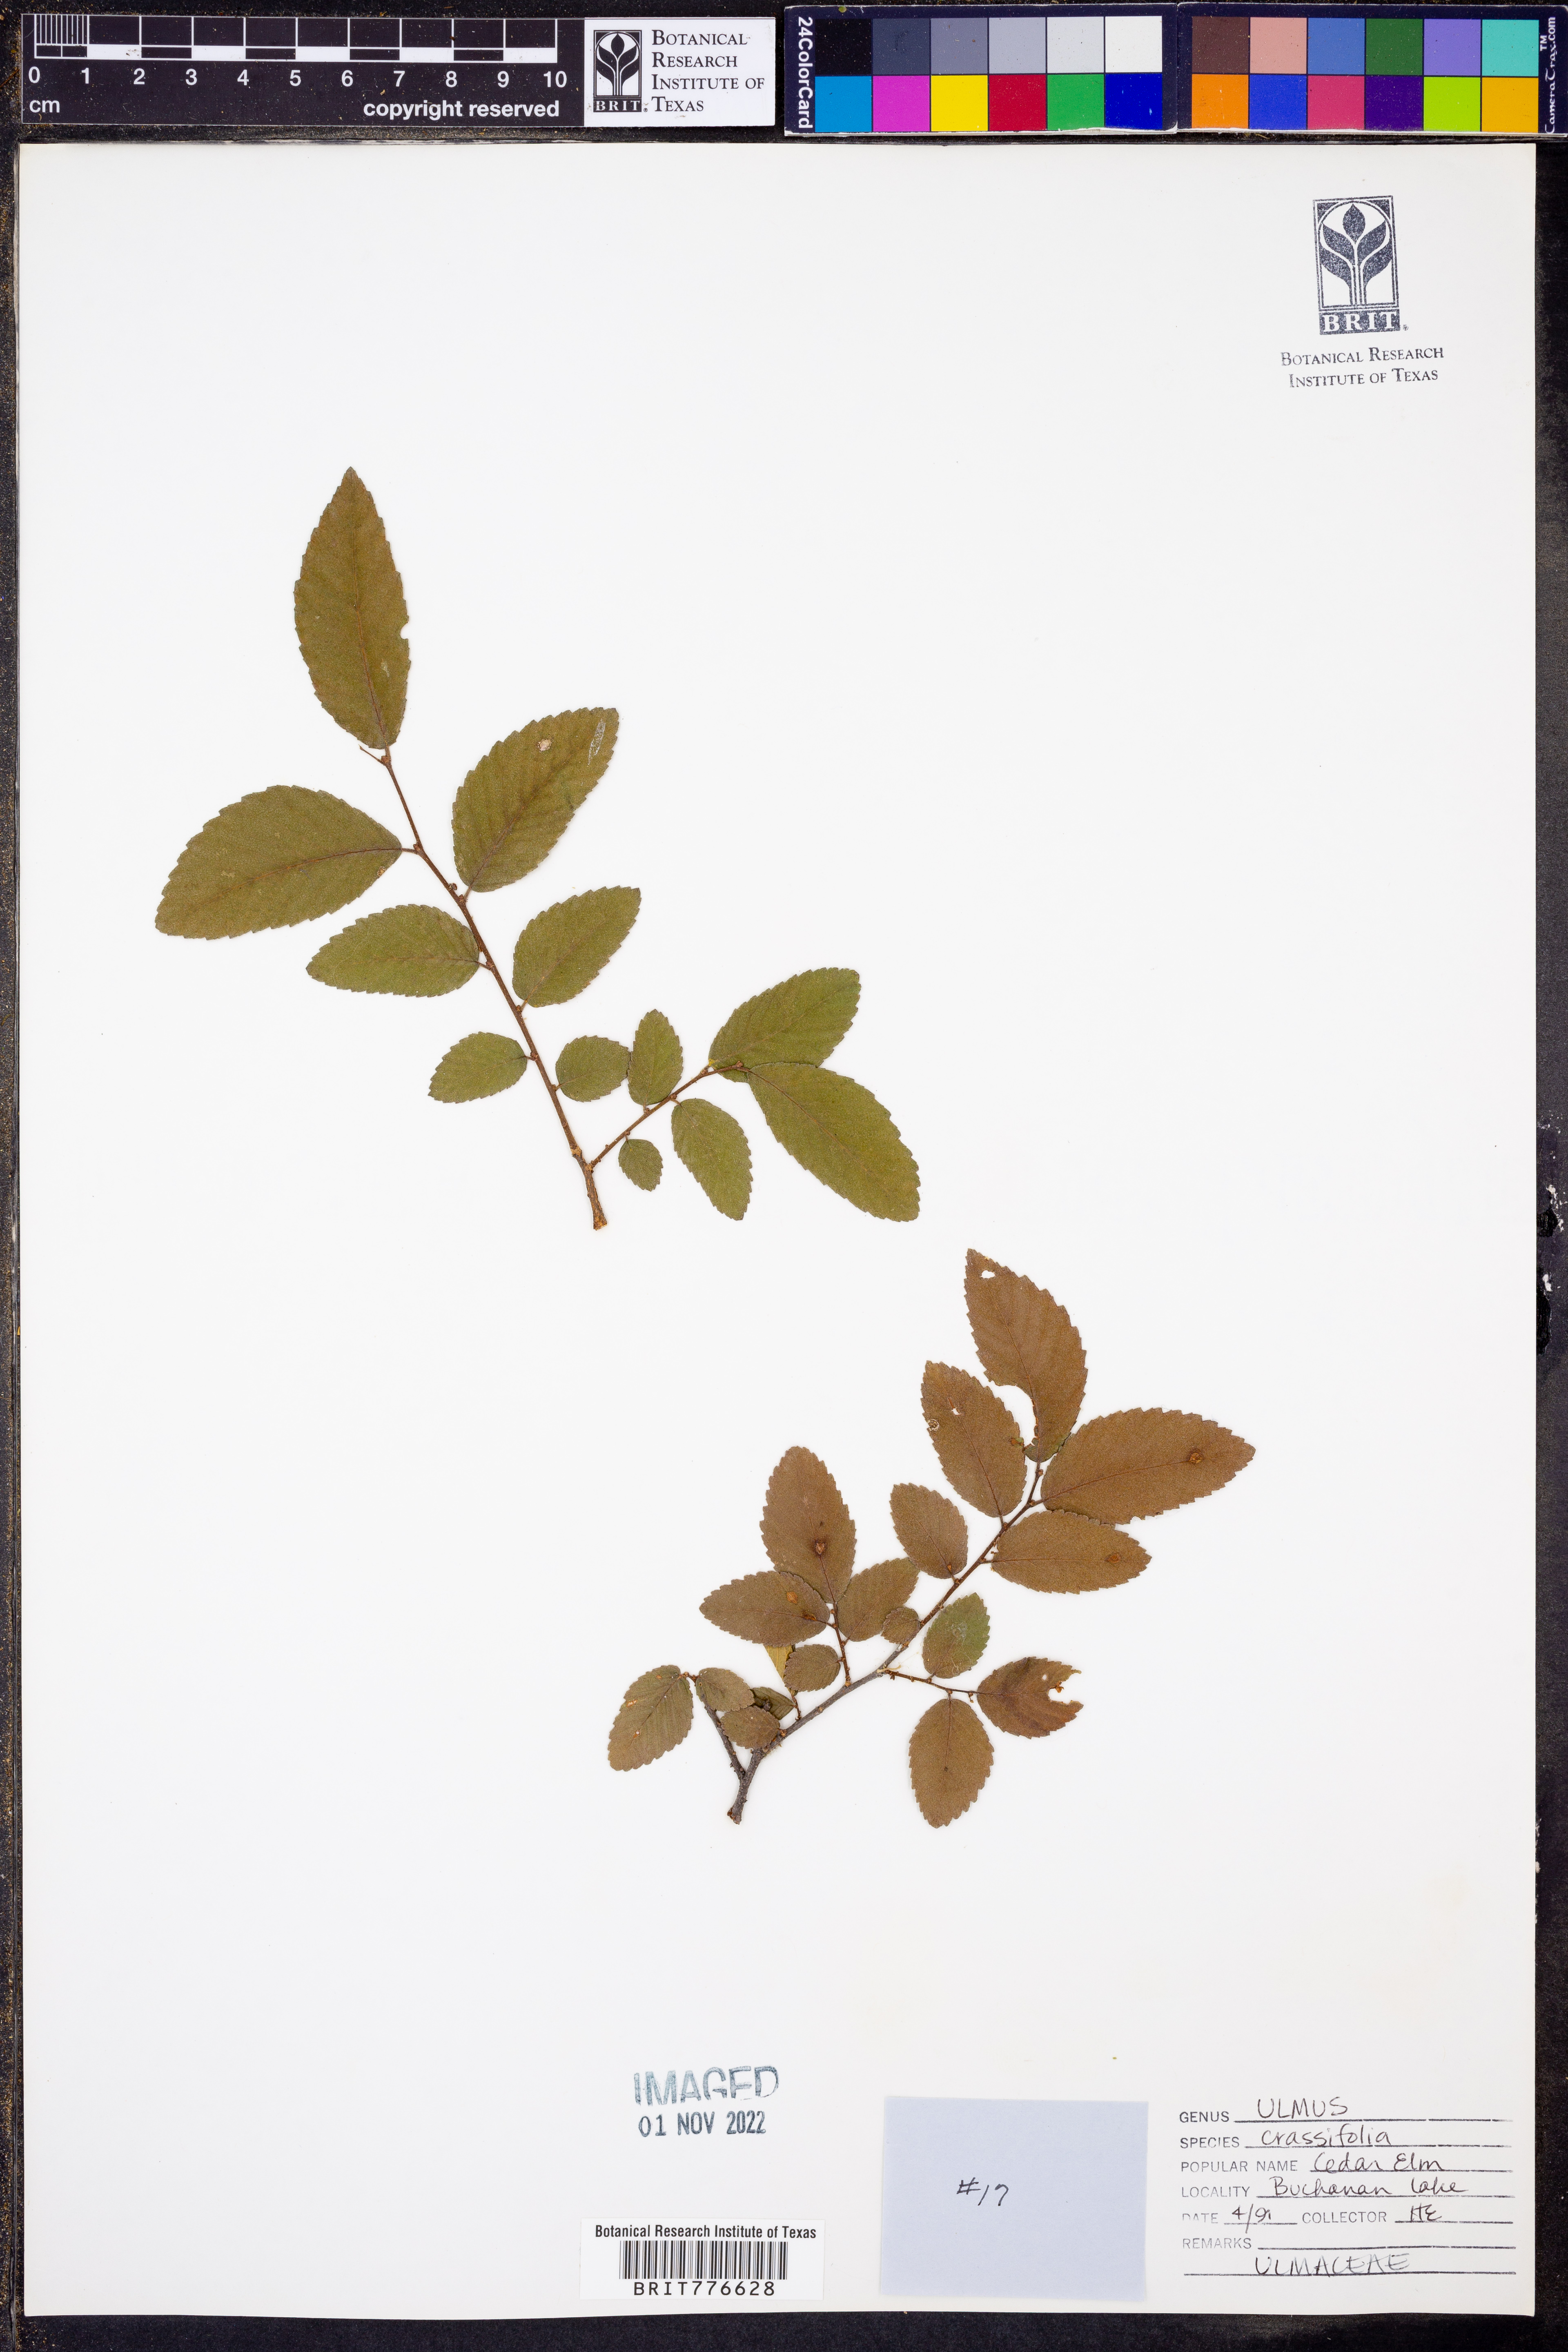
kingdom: Plantae
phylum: Tracheophyta
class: Magnoliopsida
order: Rosales
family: Ulmaceae
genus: Ulmus
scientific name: Ulmus crassifolia
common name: Basket elm
